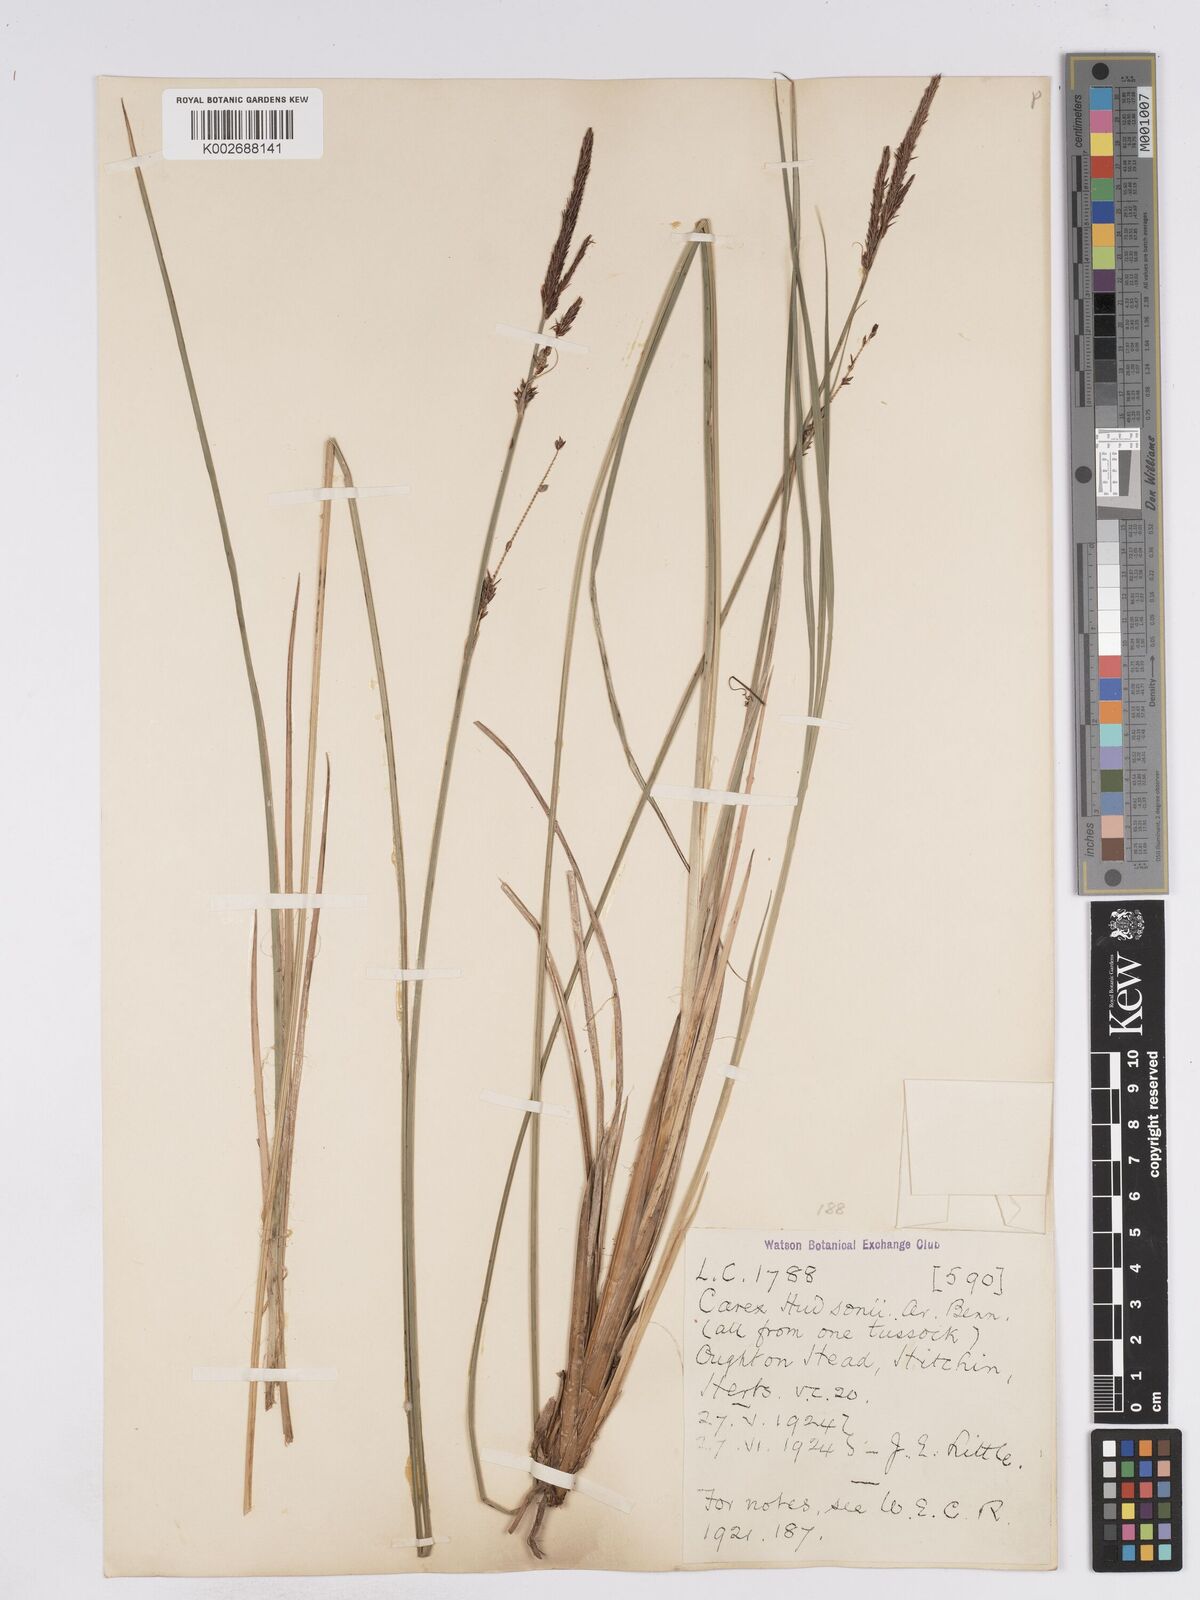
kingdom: Plantae
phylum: Tracheophyta
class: Liliopsida
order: Poales
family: Cyperaceae
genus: Carex
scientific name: Carex elata
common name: Tufted sedge
